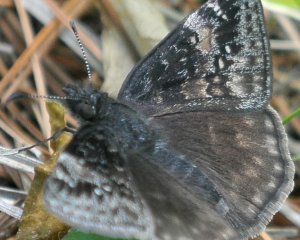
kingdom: Animalia
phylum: Arthropoda
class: Insecta
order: Lepidoptera
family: Hesperiidae
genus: Gesta
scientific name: Gesta
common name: Juvenal's Duskywing
